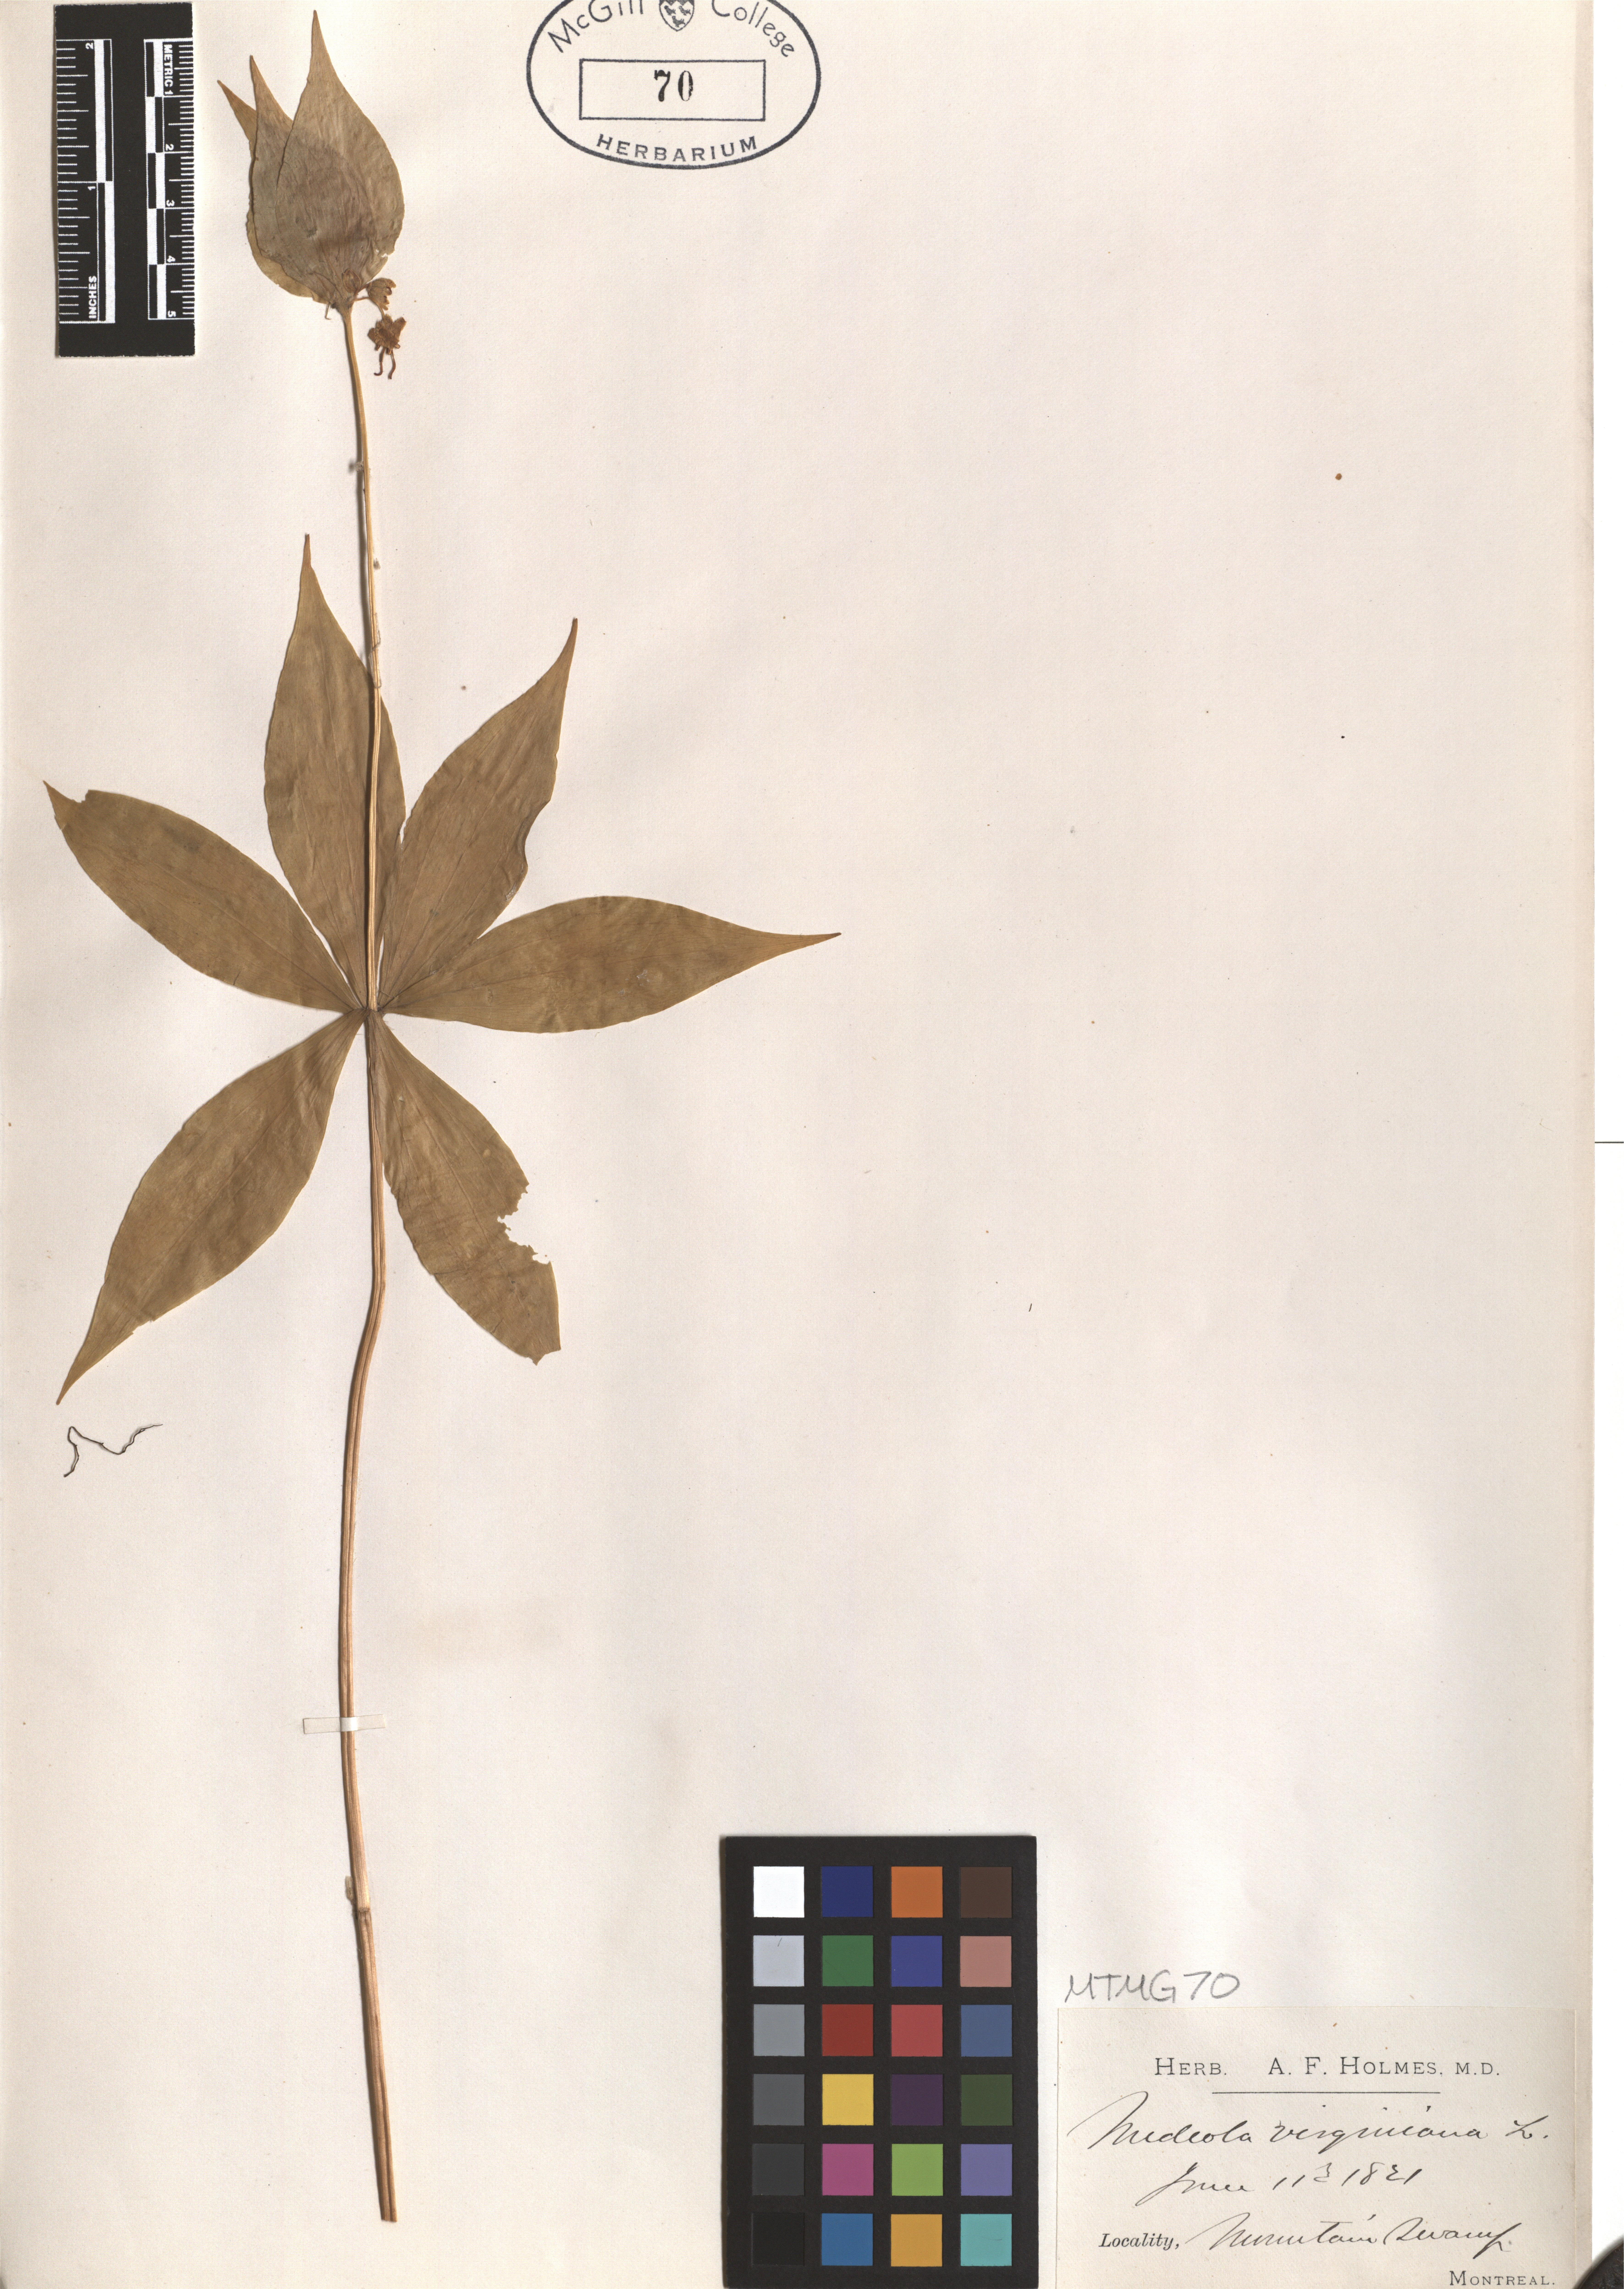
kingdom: Plantae
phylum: Tracheophyta
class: Liliopsida
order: Liliales
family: Liliaceae
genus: Medeola
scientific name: Medeola virginiana
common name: Indian cucumber-root
